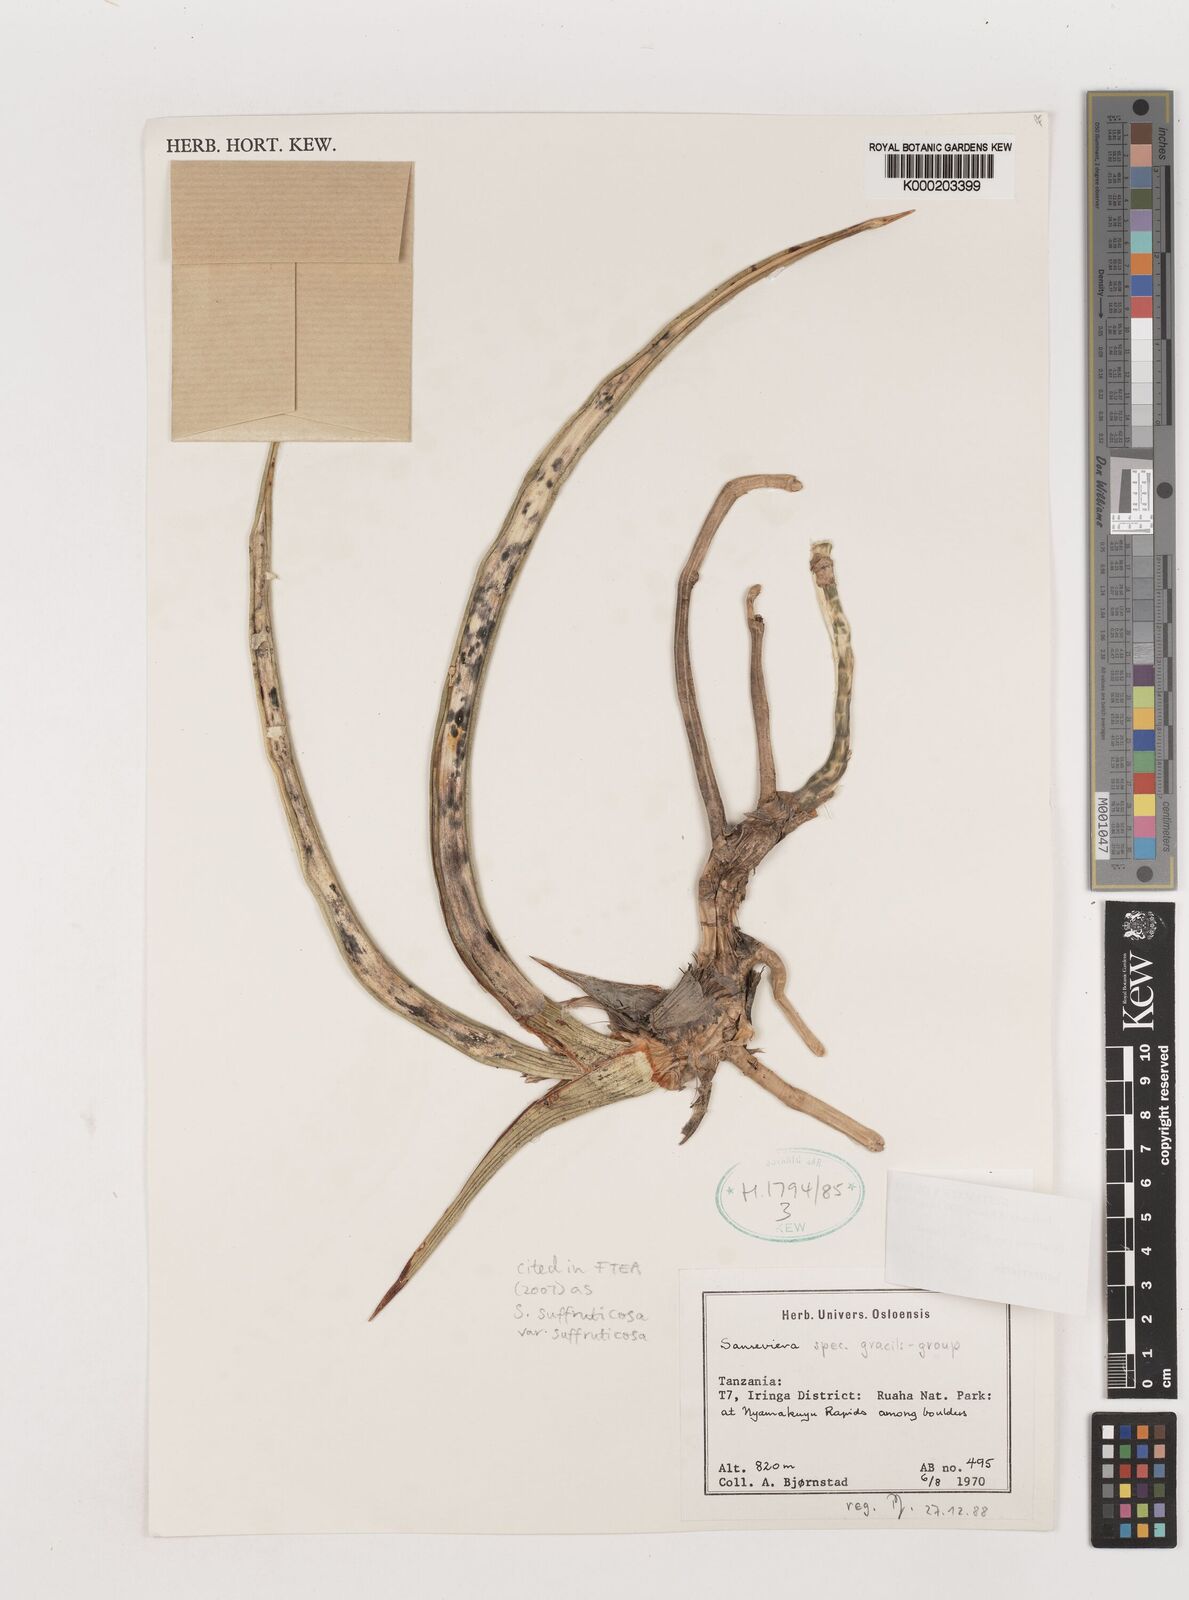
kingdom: Plantae
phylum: Tracheophyta
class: Liliopsida
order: Asparagales
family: Asparagaceae
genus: Dracaena
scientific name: Dracaena suffruticosa
